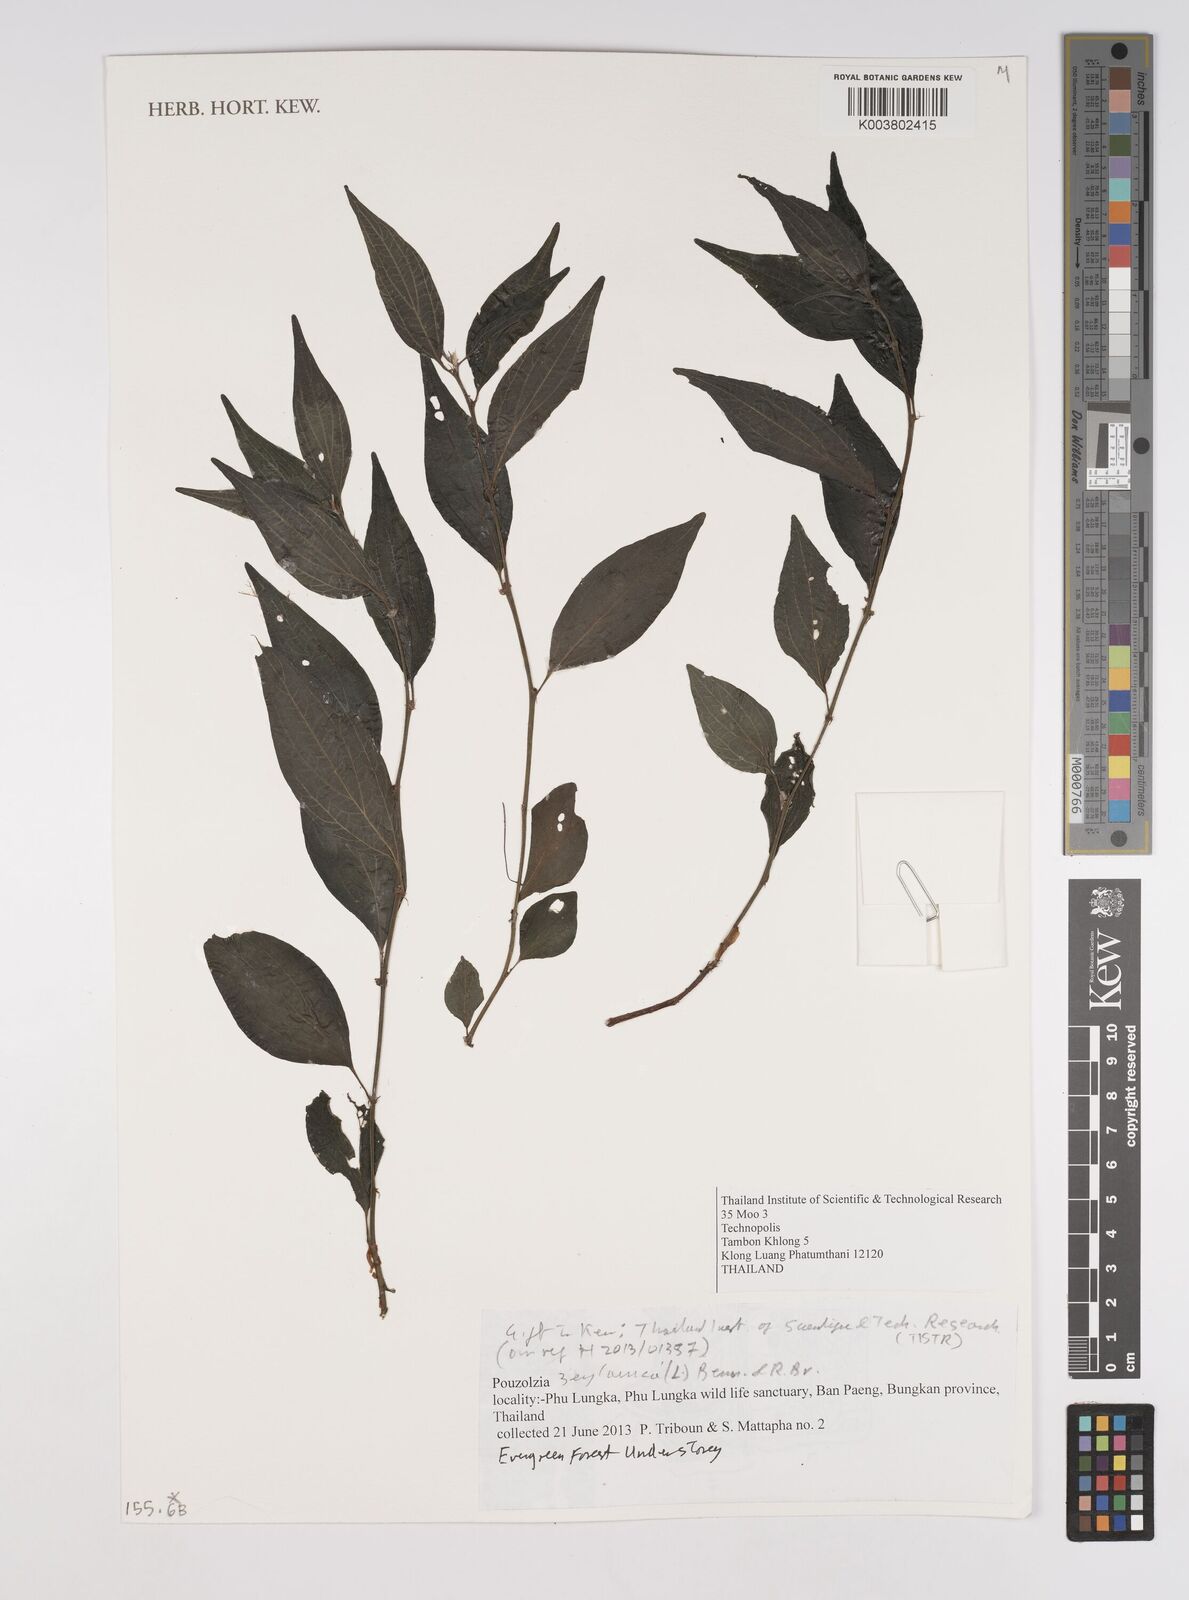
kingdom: Plantae
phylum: Tracheophyta
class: Magnoliopsida
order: Rosales
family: Urticaceae
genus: Pouzolzia
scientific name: Pouzolzia zeylanica
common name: Graceful pouzolzsbush
